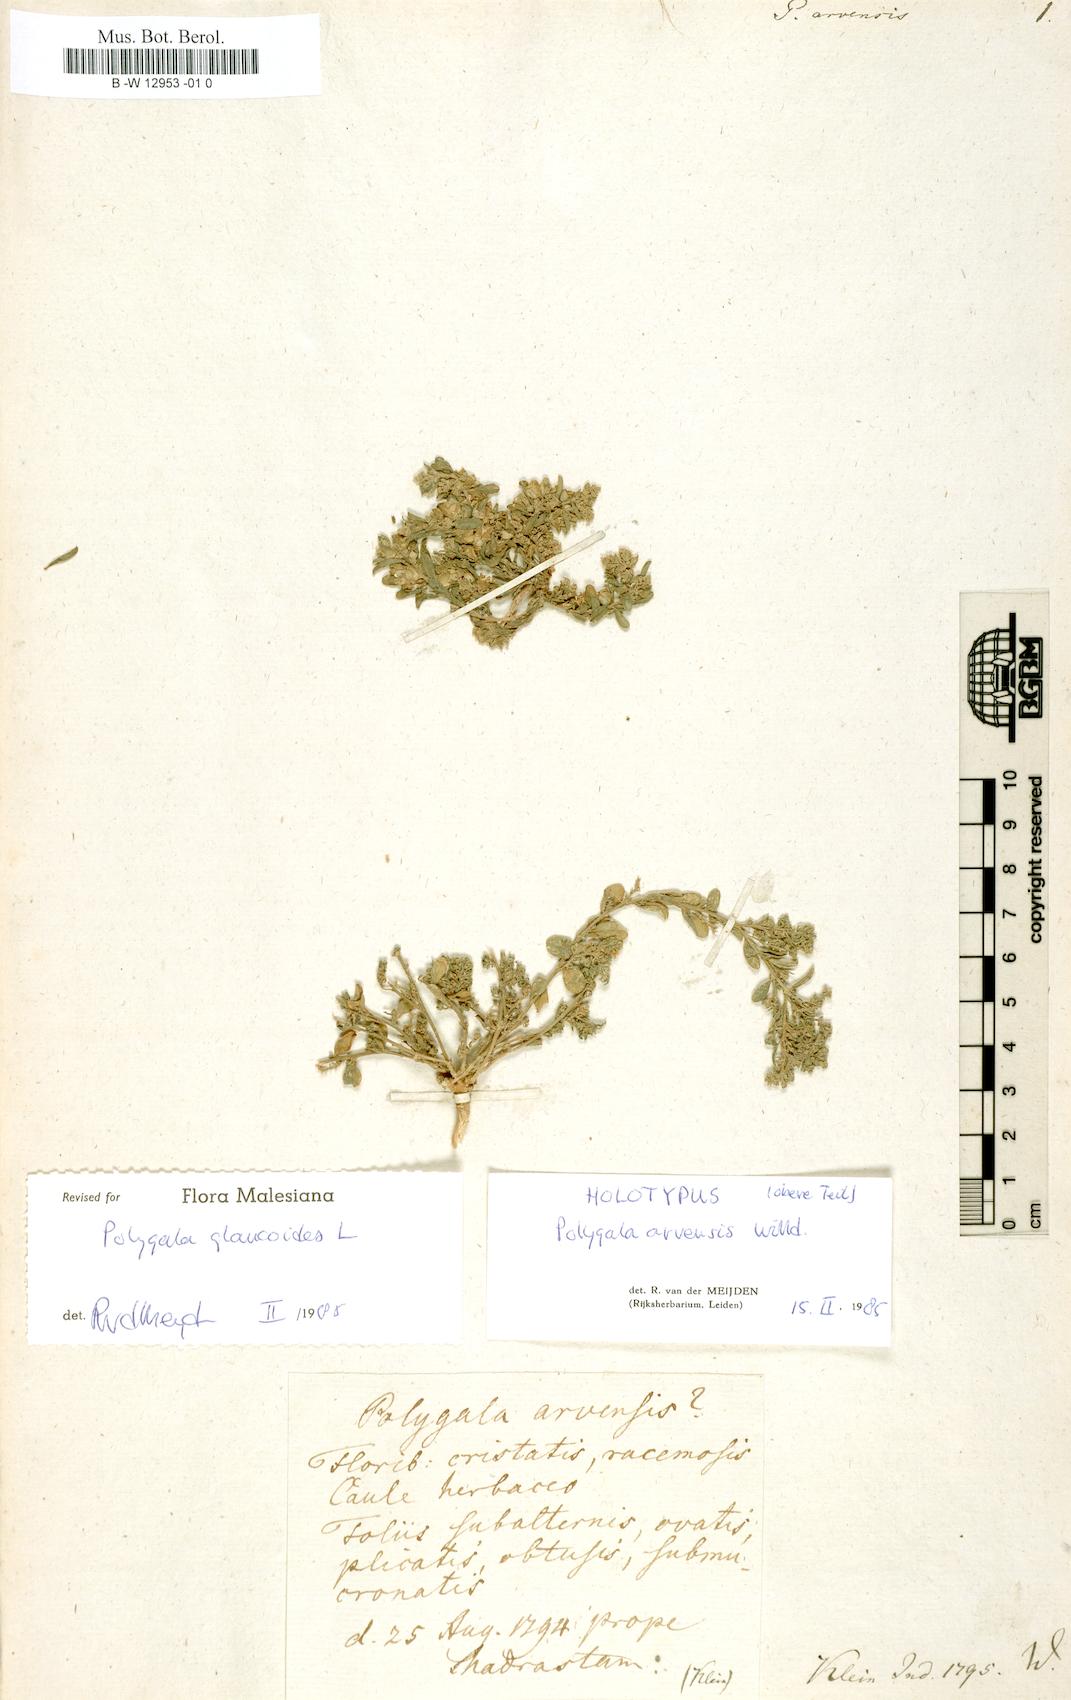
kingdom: Plantae
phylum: Tracheophyta
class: Magnoliopsida
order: Fabales
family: Polygalaceae
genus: Polygala
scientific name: Polygala arvensis
